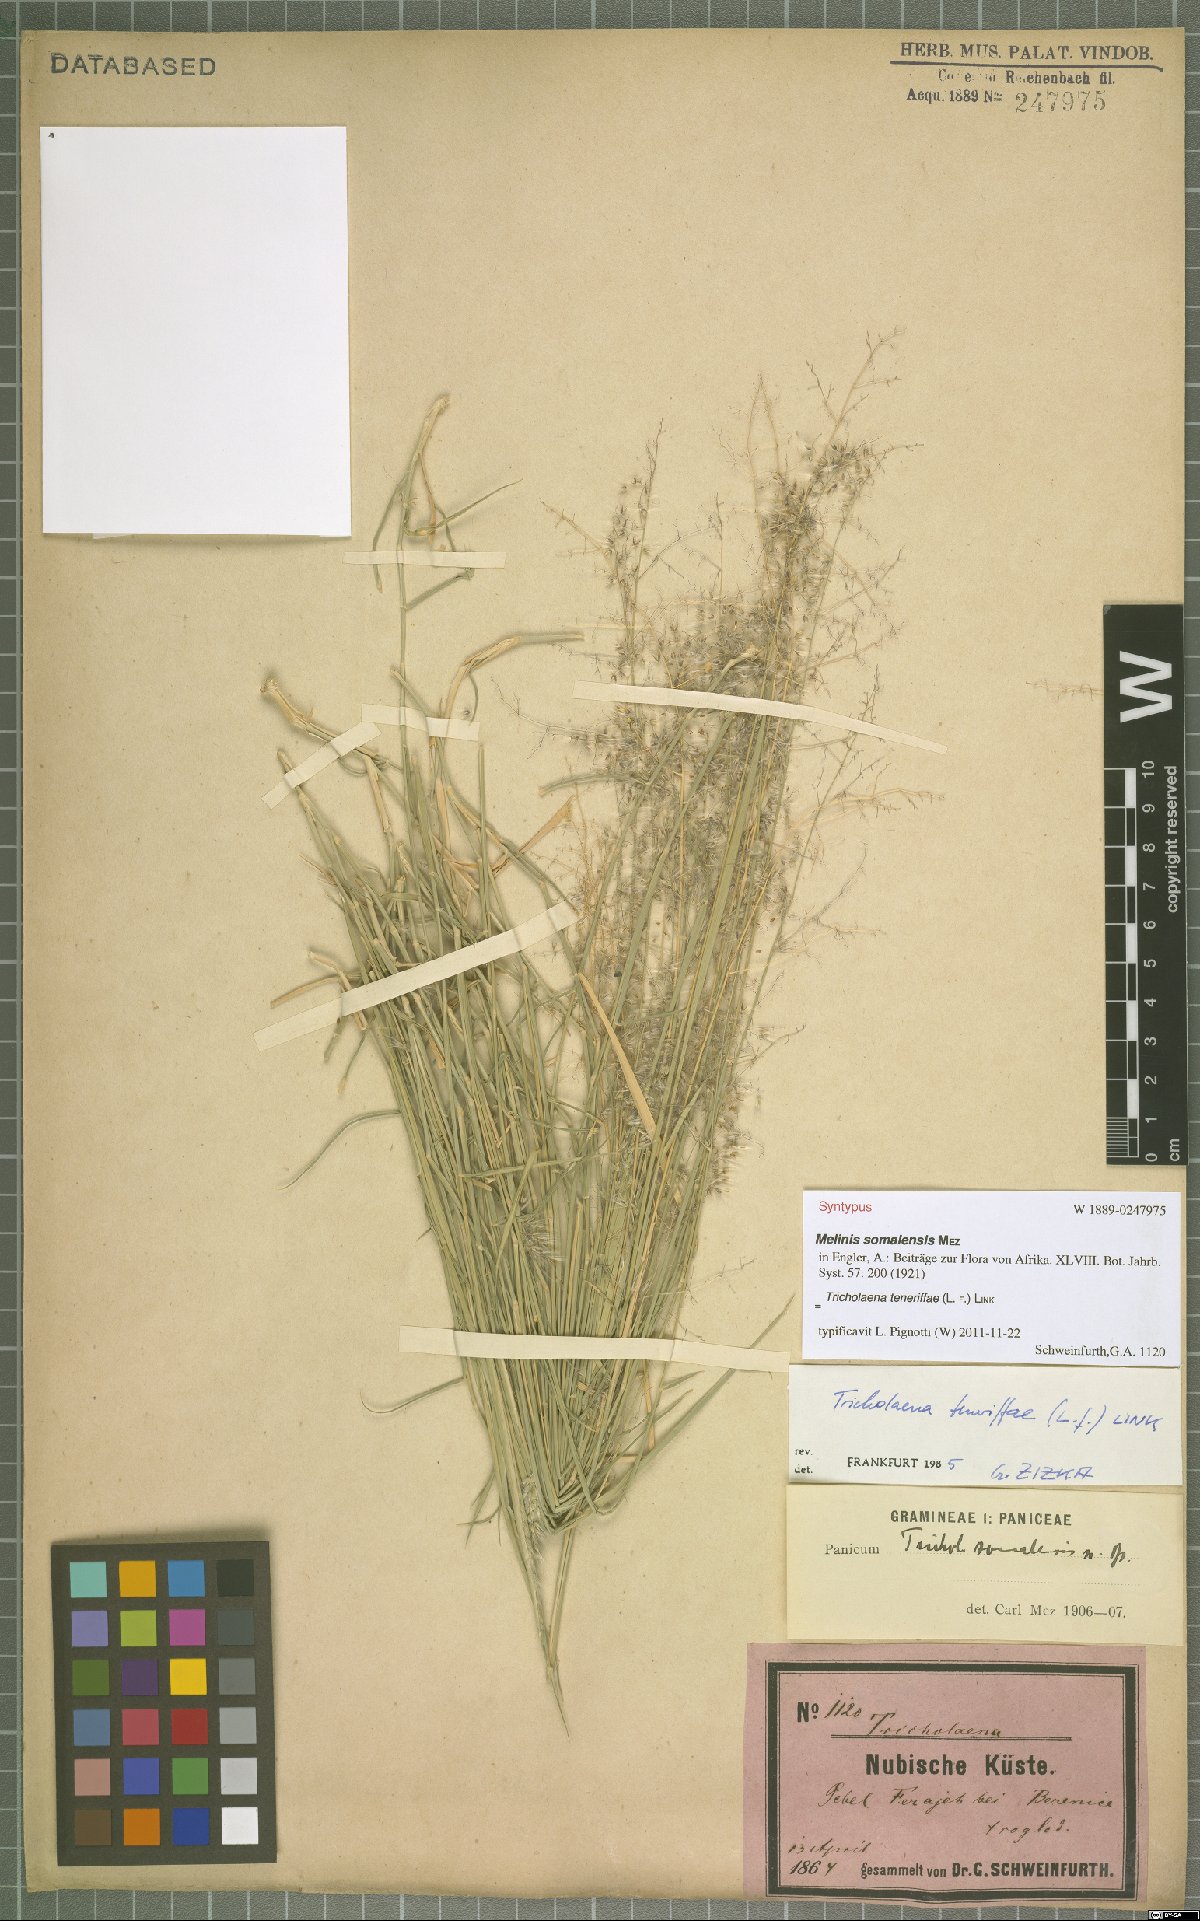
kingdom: Plantae
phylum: Tracheophyta
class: Liliopsida
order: Poales
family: Poaceae
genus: Tricholaena
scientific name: Tricholaena teneriffae
